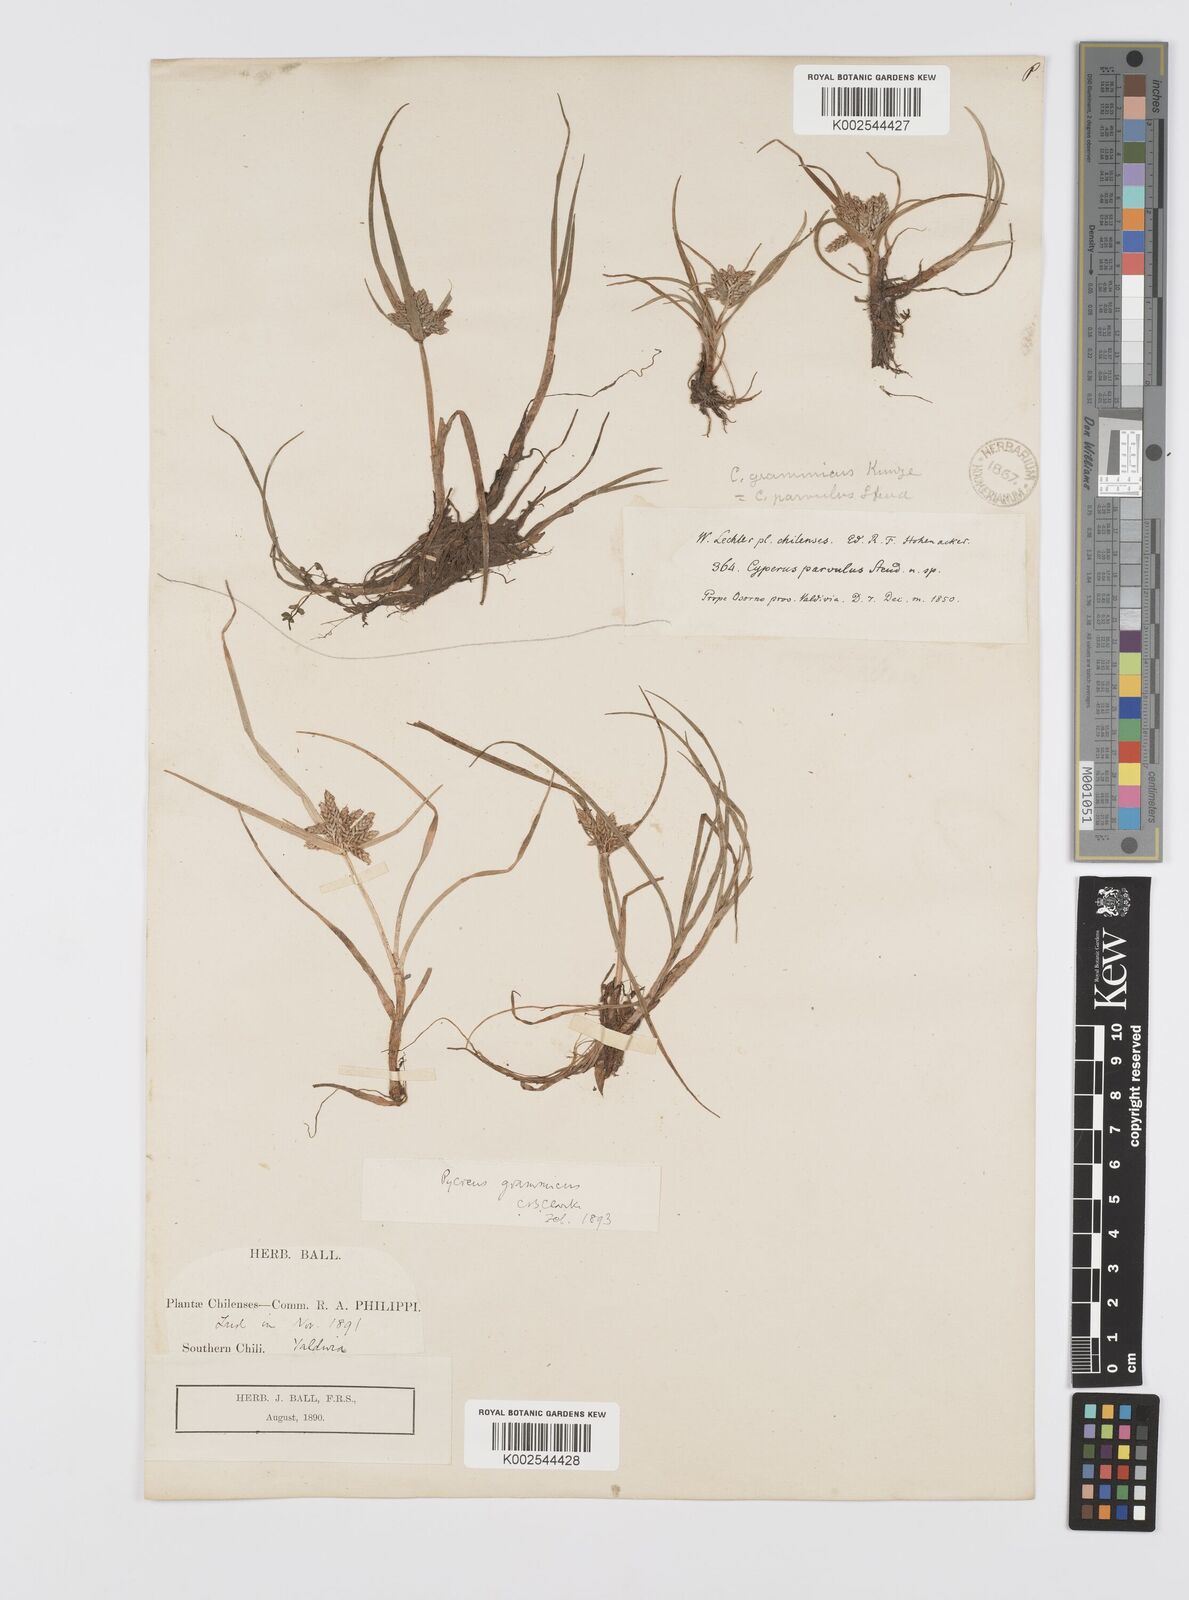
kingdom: Plantae
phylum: Tracheophyta
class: Liliopsida
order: Poales
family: Cyperaceae
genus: Cyperus
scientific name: Cyperus grammicus
